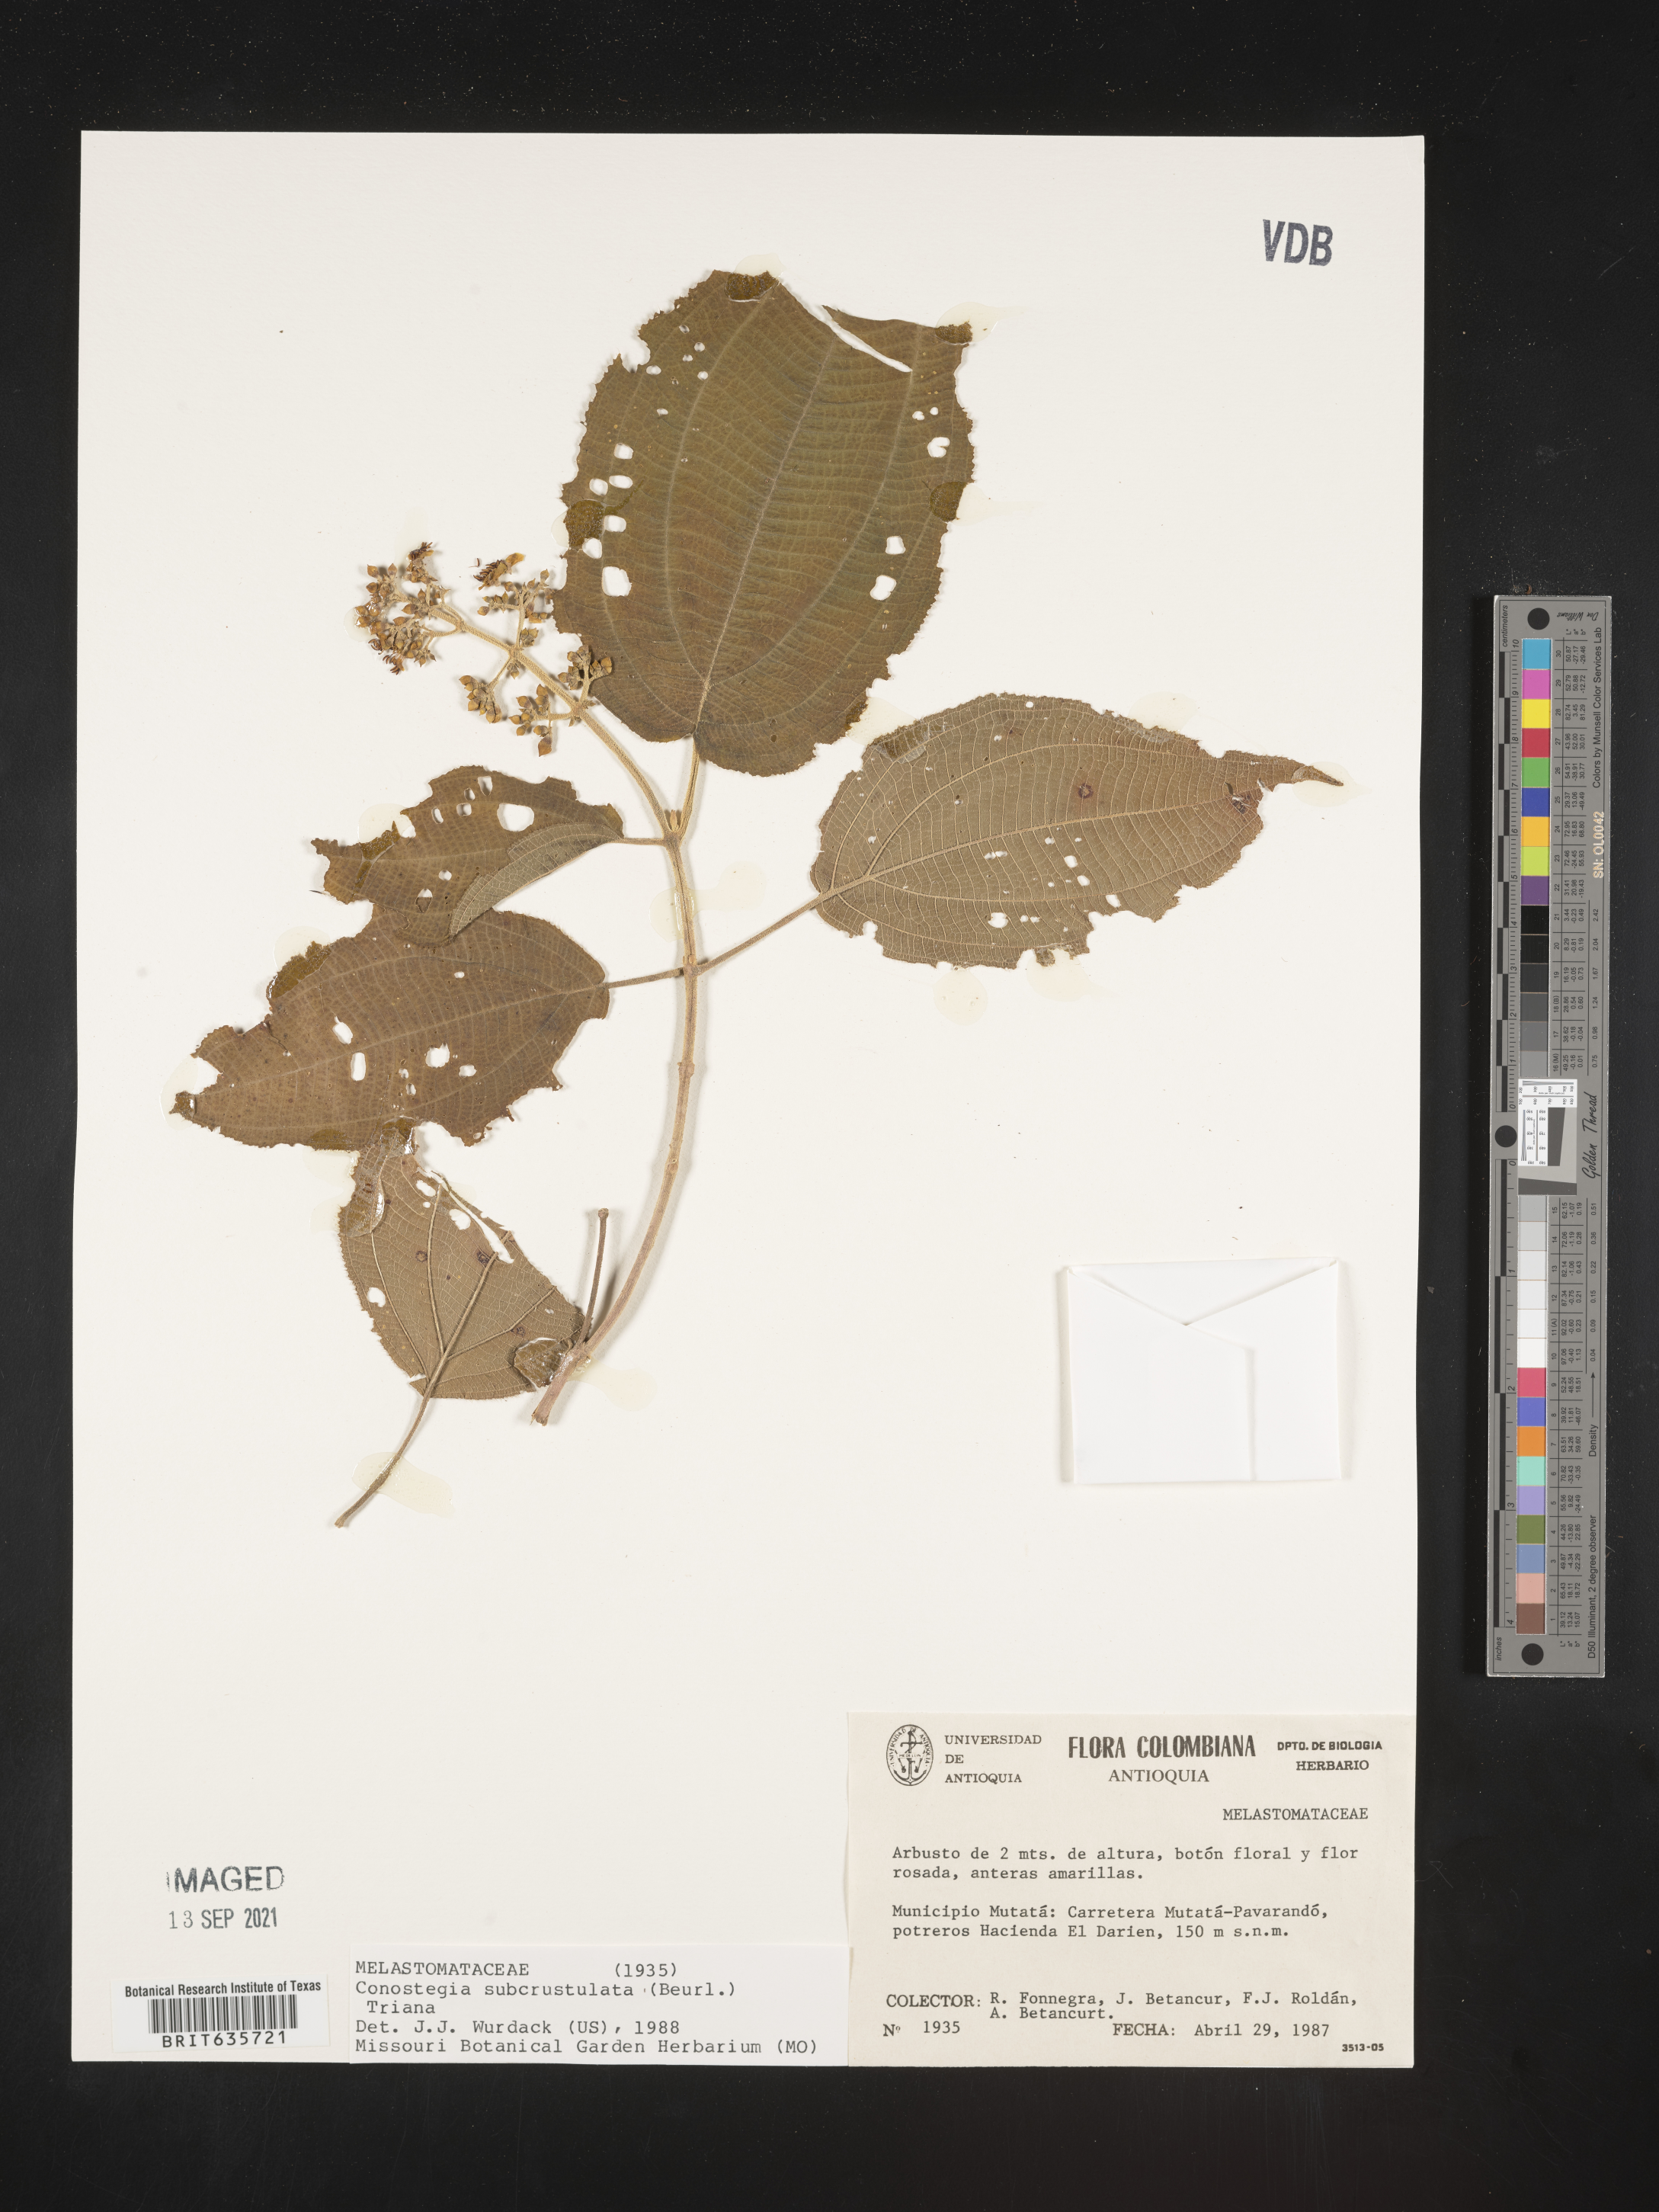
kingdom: Plantae
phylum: Tracheophyta
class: Magnoliopsida
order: Myrtales
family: Melastomataceae
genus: Miconia
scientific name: Miconia
